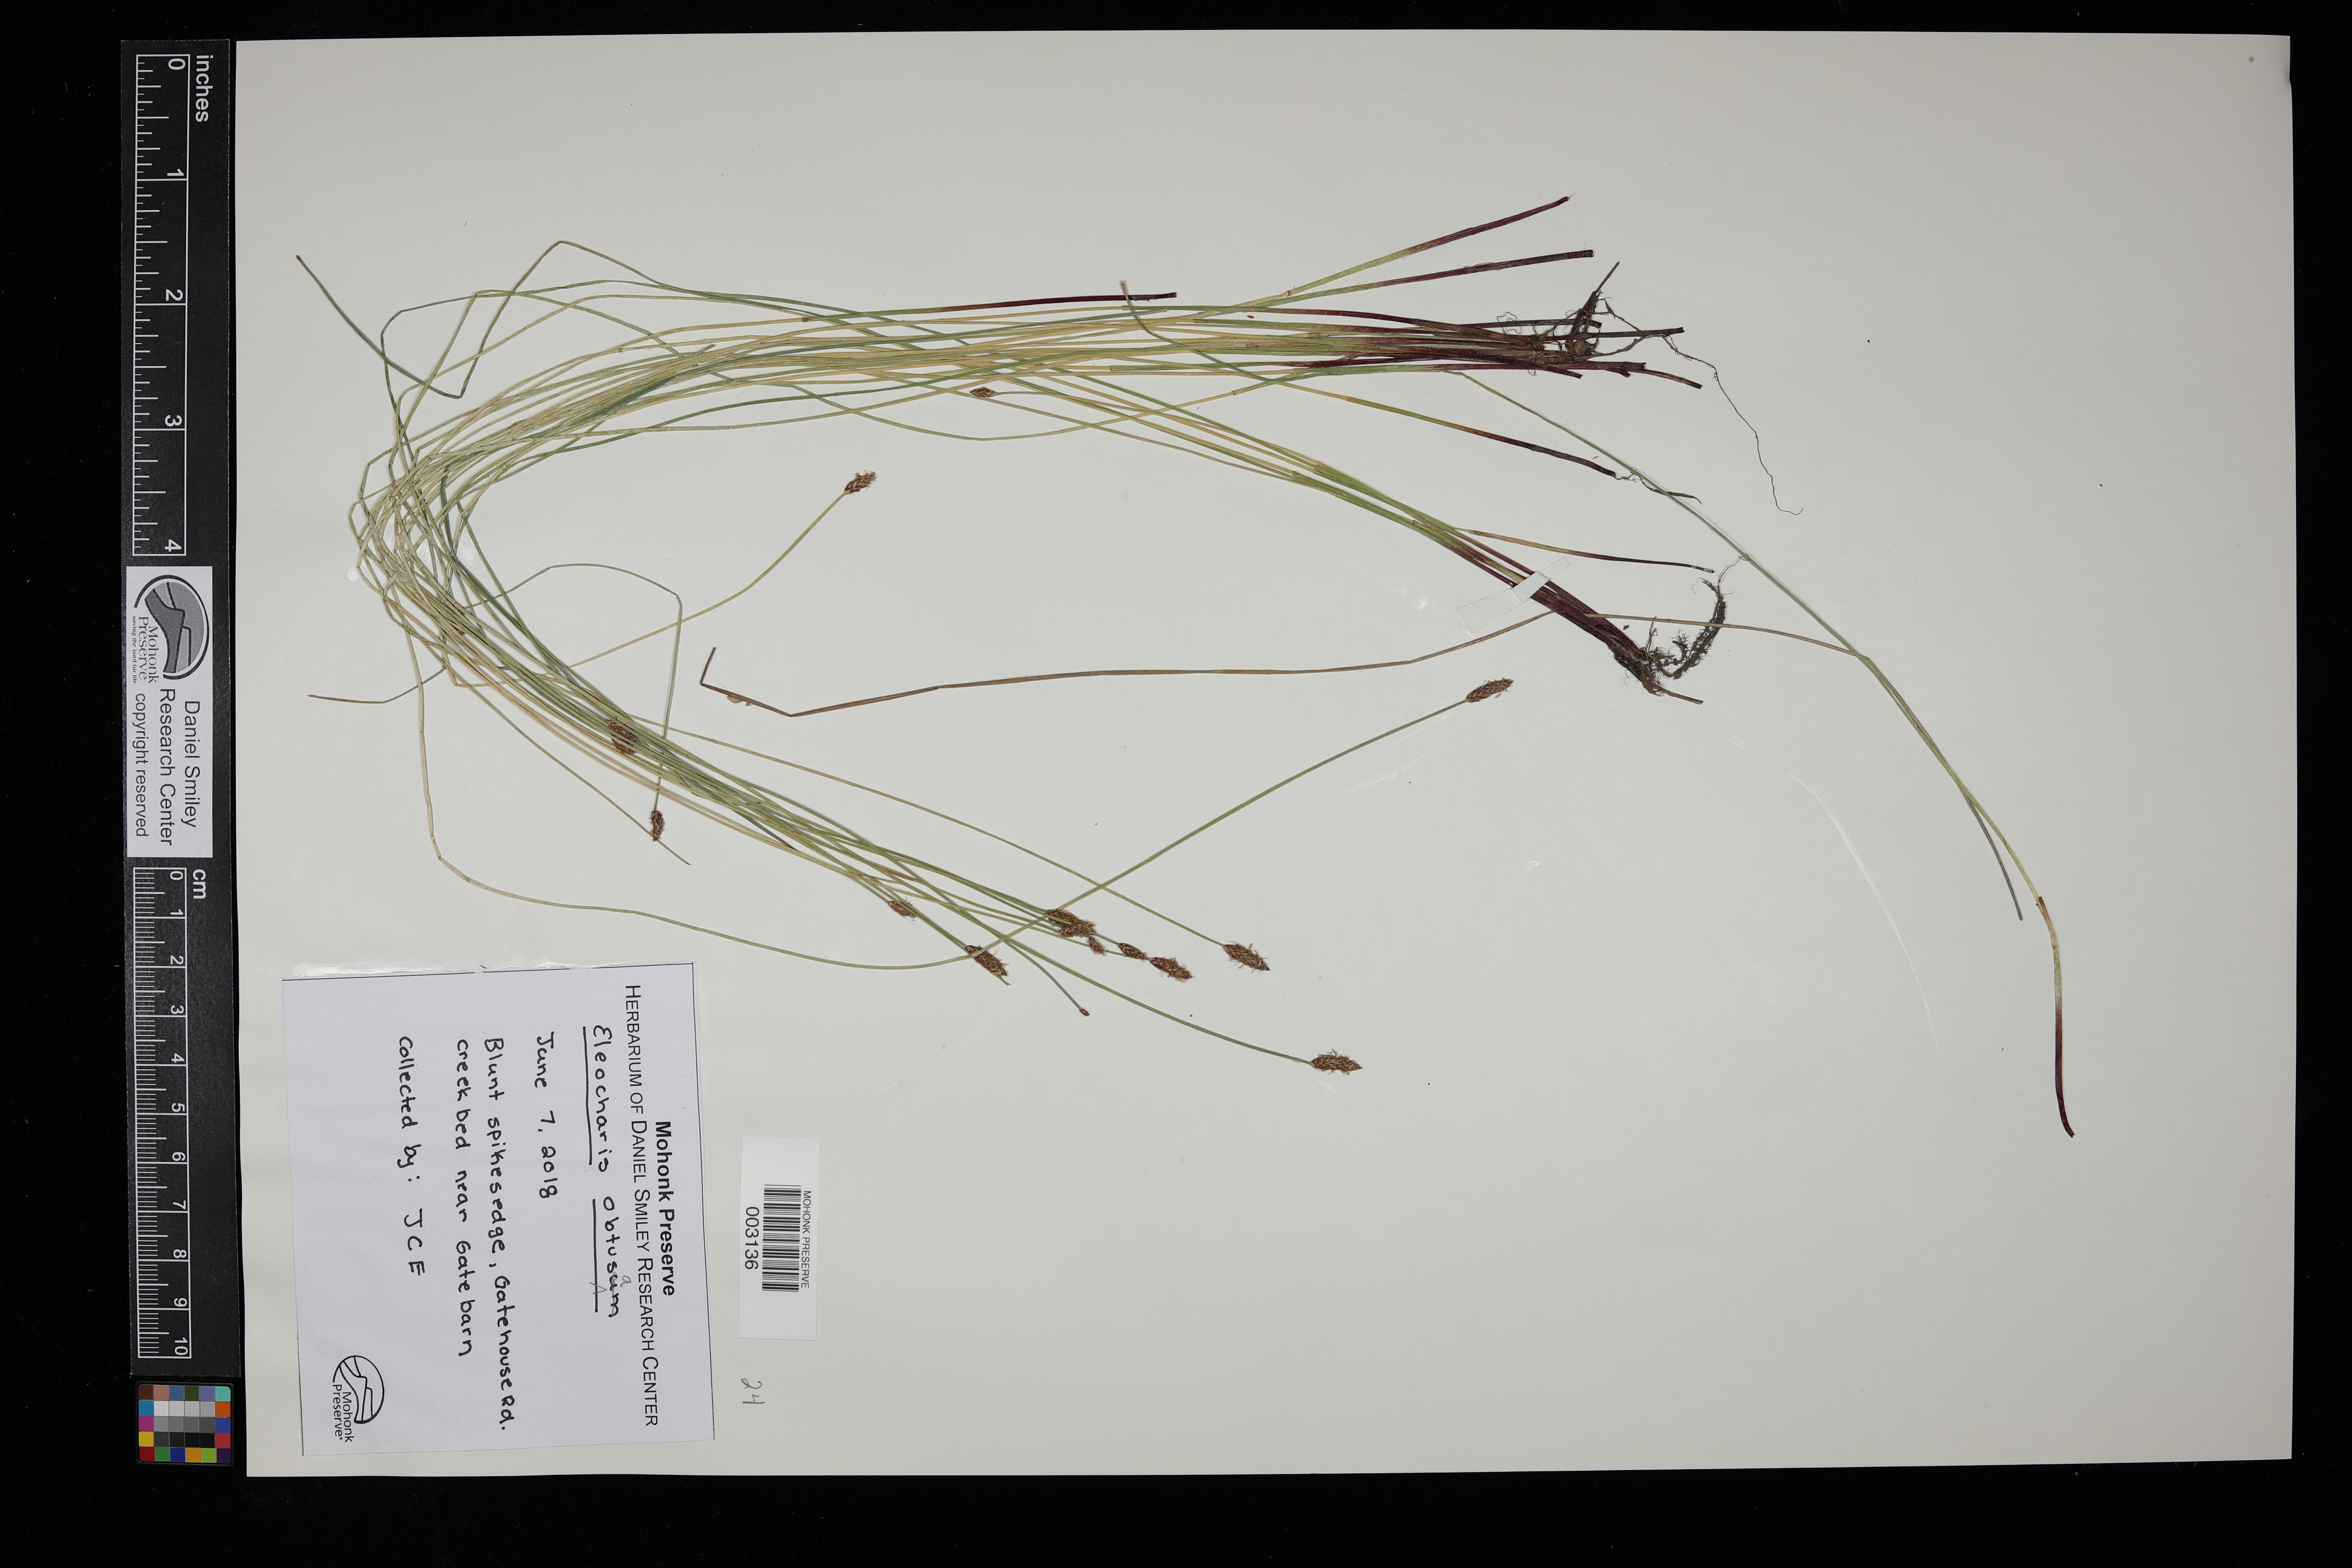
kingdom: Plantae
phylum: Tracheophyta
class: Liliopsida
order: Poales
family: Cyperaceae
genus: Eleocharis
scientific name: Eleocharis obtusa
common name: Blunt spikerush
